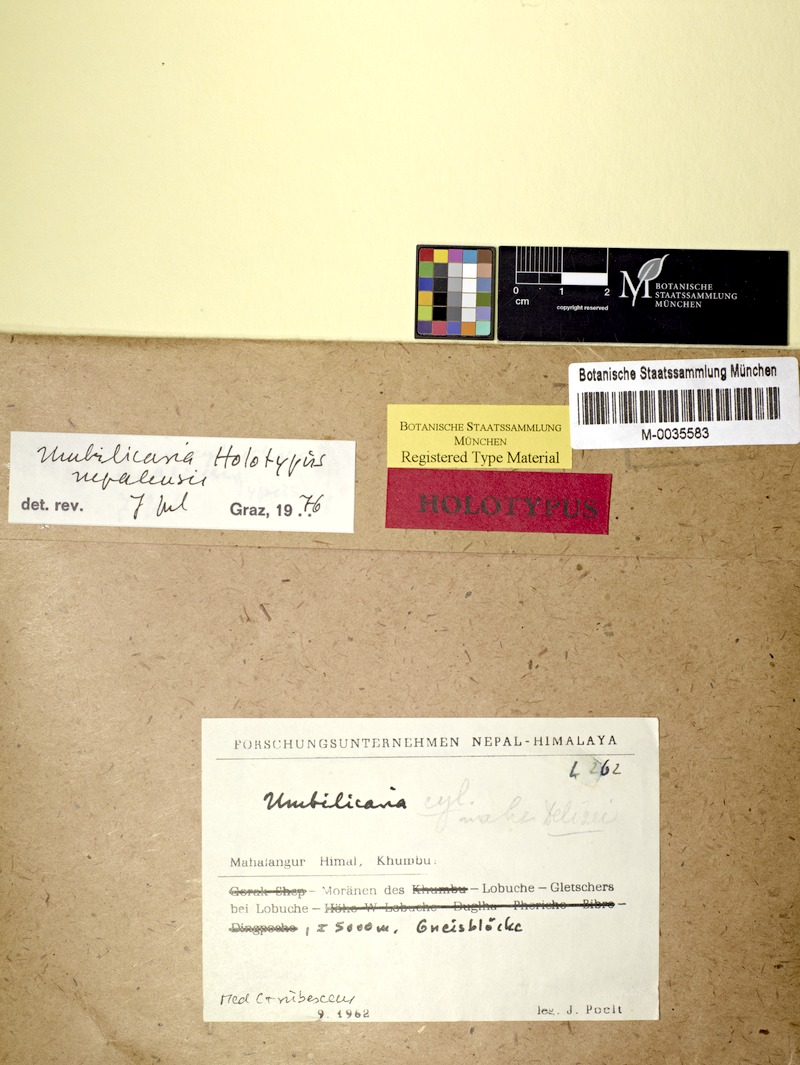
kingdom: Fungi
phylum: Ascomycota
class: Lecanoromycetes
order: Umbilicariales
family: Umbilicariaceae
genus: Umbilicaria
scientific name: Umbilicaria
